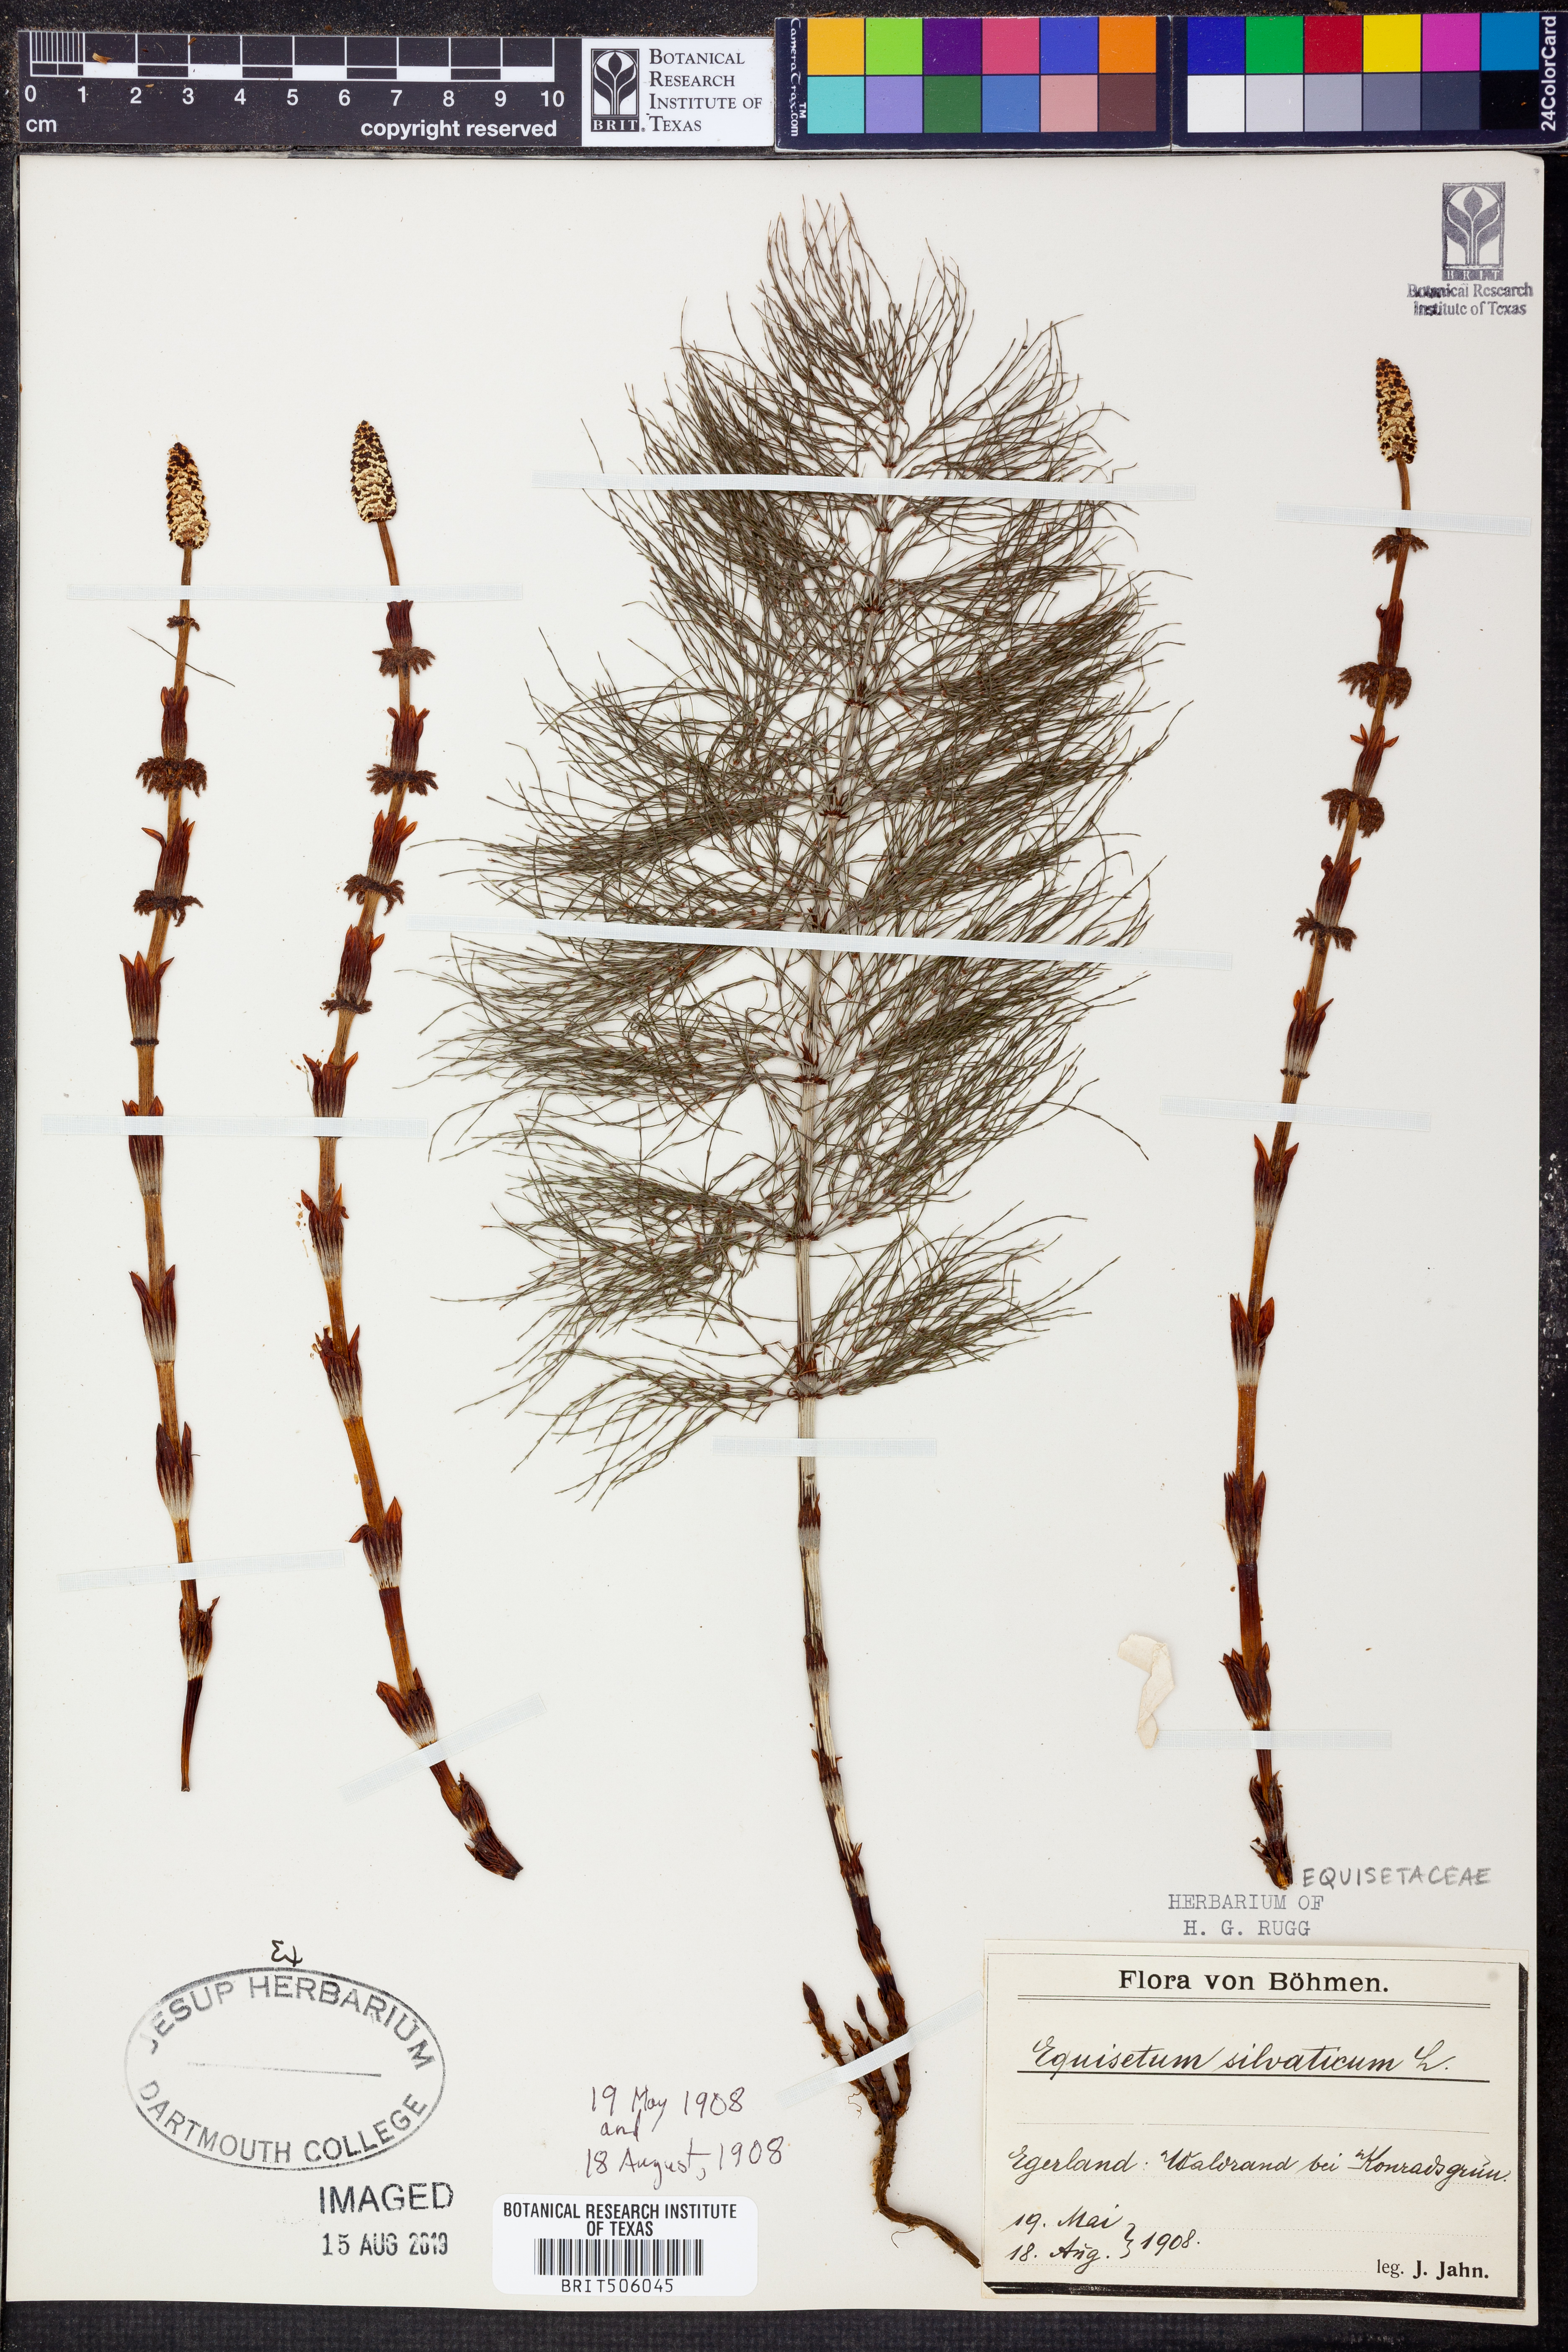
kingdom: Plantae
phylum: Tracheophyta
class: Polypodiopsida
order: Equisetales
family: Equisetaceae
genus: Equisetum
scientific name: Equisetum sylvaticum
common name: Wood horsetail
